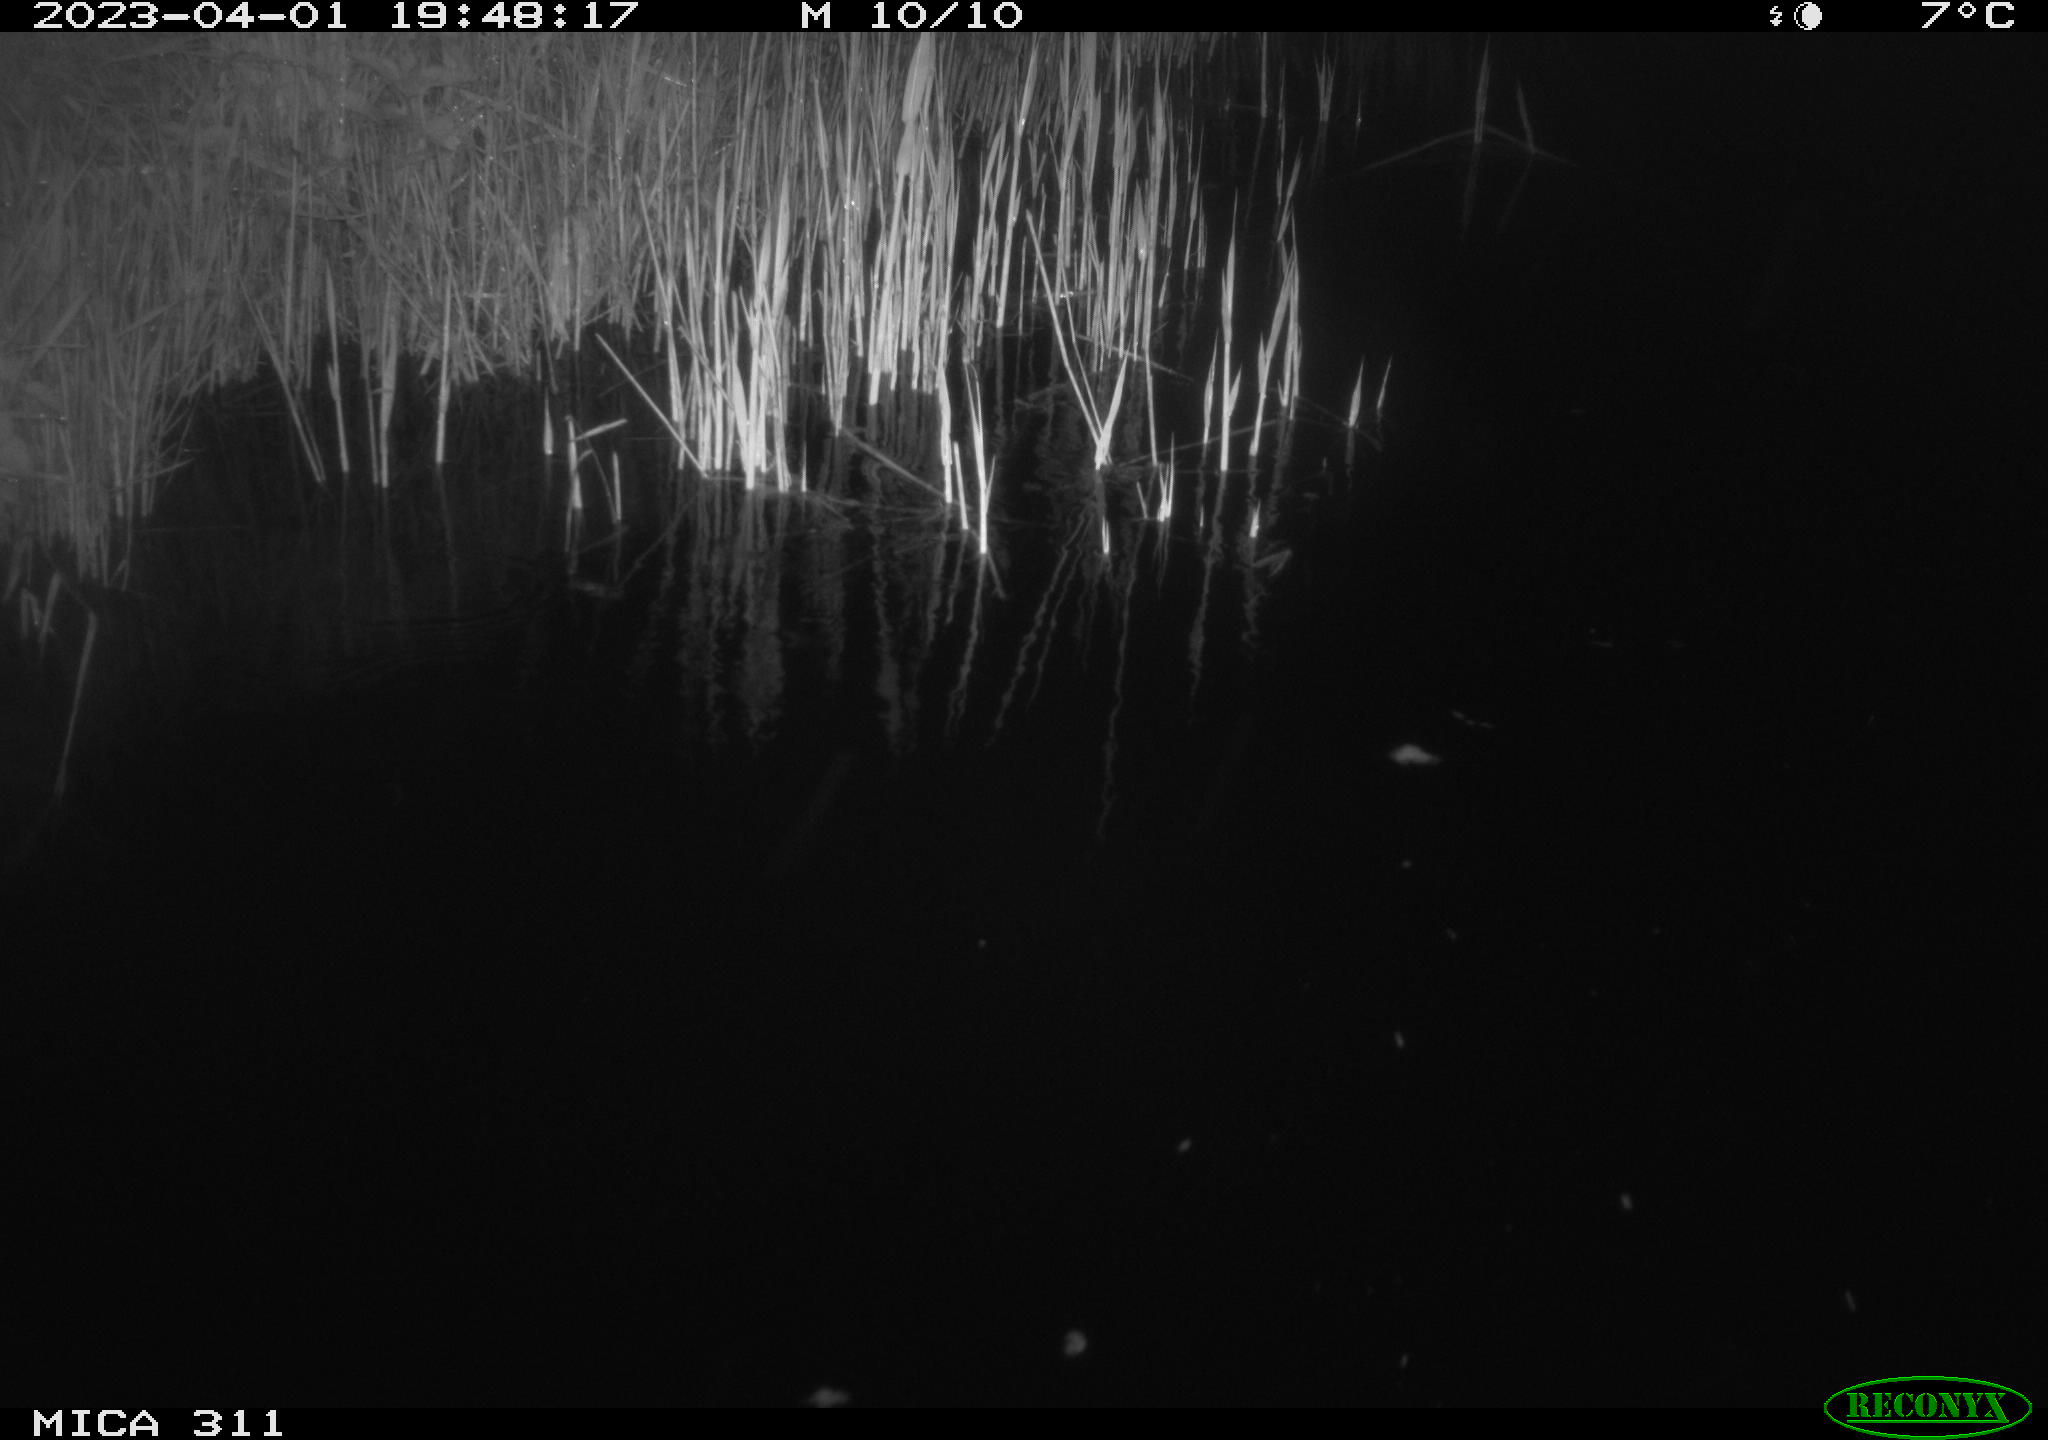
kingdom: Animalia
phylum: Chordata
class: Aves
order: Anseriformes
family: Anatidae
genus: Anas
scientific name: Anas
